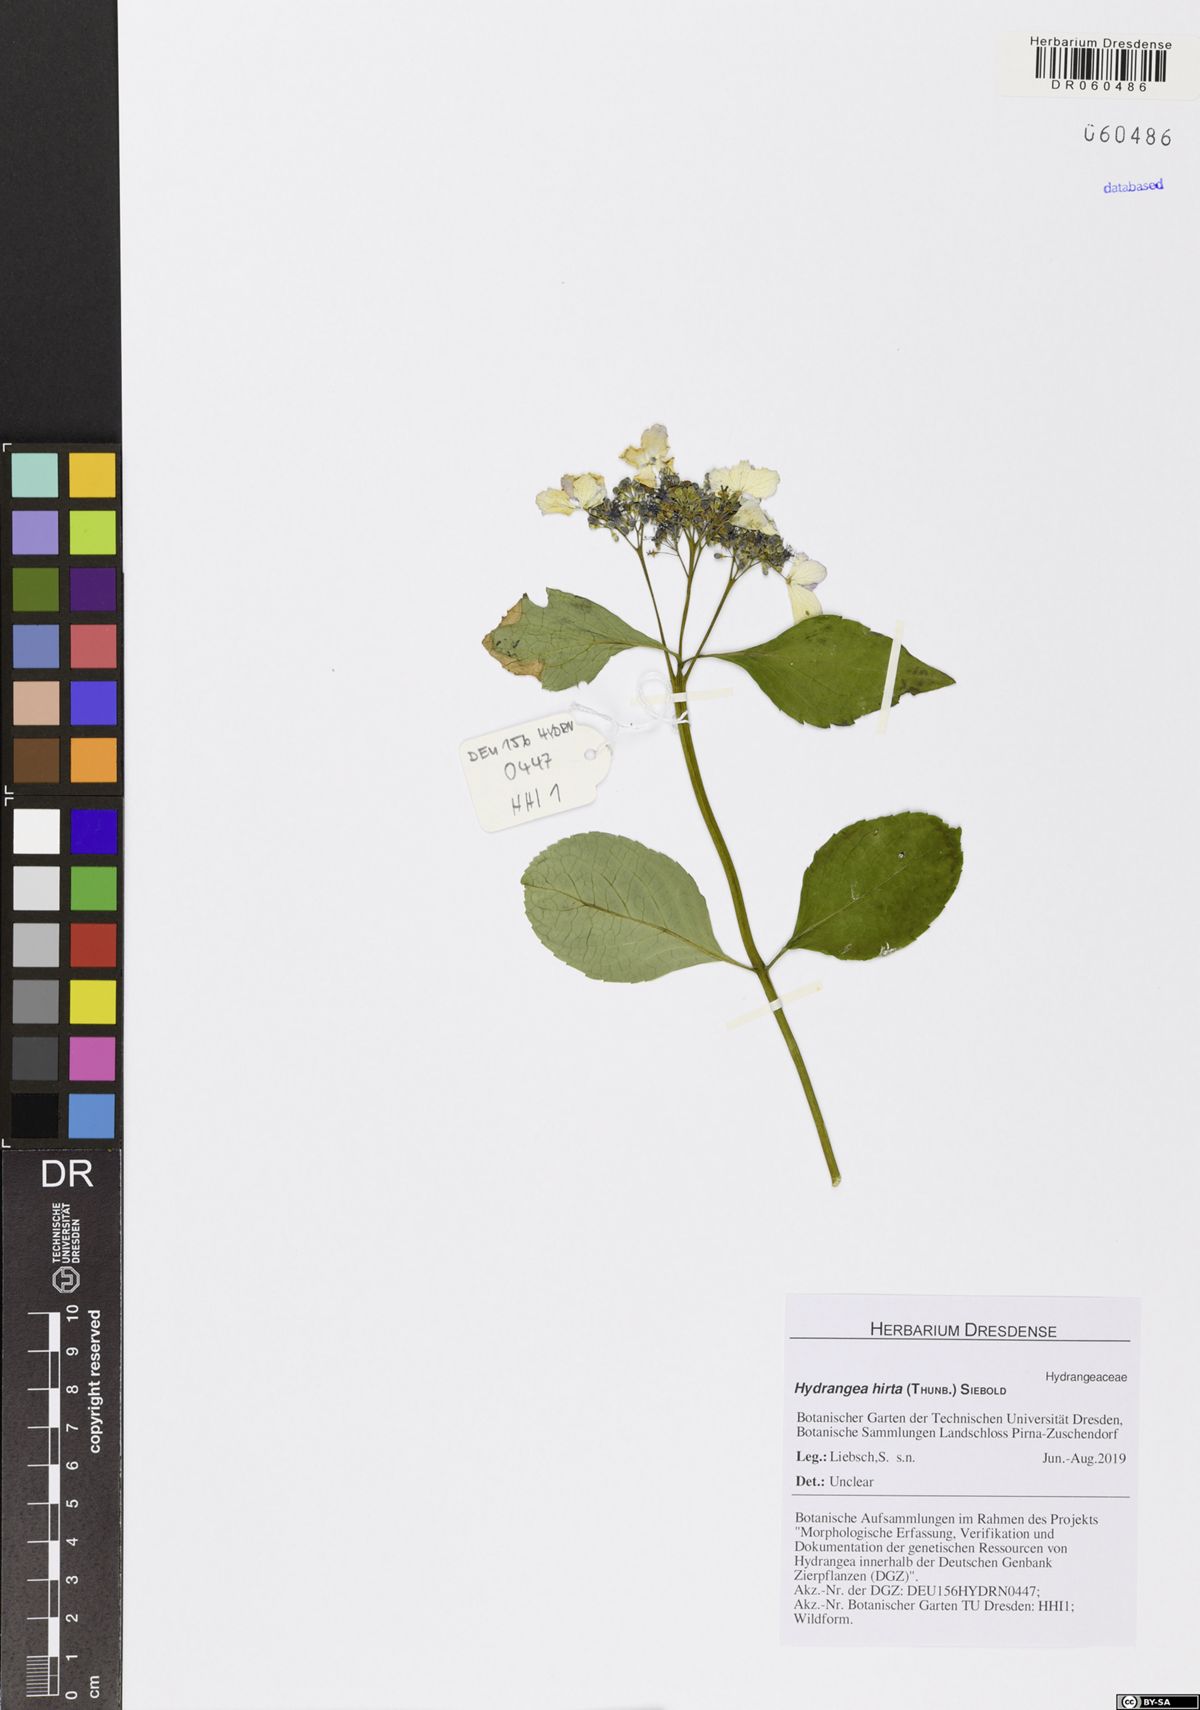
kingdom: Plantae
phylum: Tracheophyta
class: Magnoliopsida
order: Cornales
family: Hydrangeaceae
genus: Hydrangea
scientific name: Hydrangea hirta
